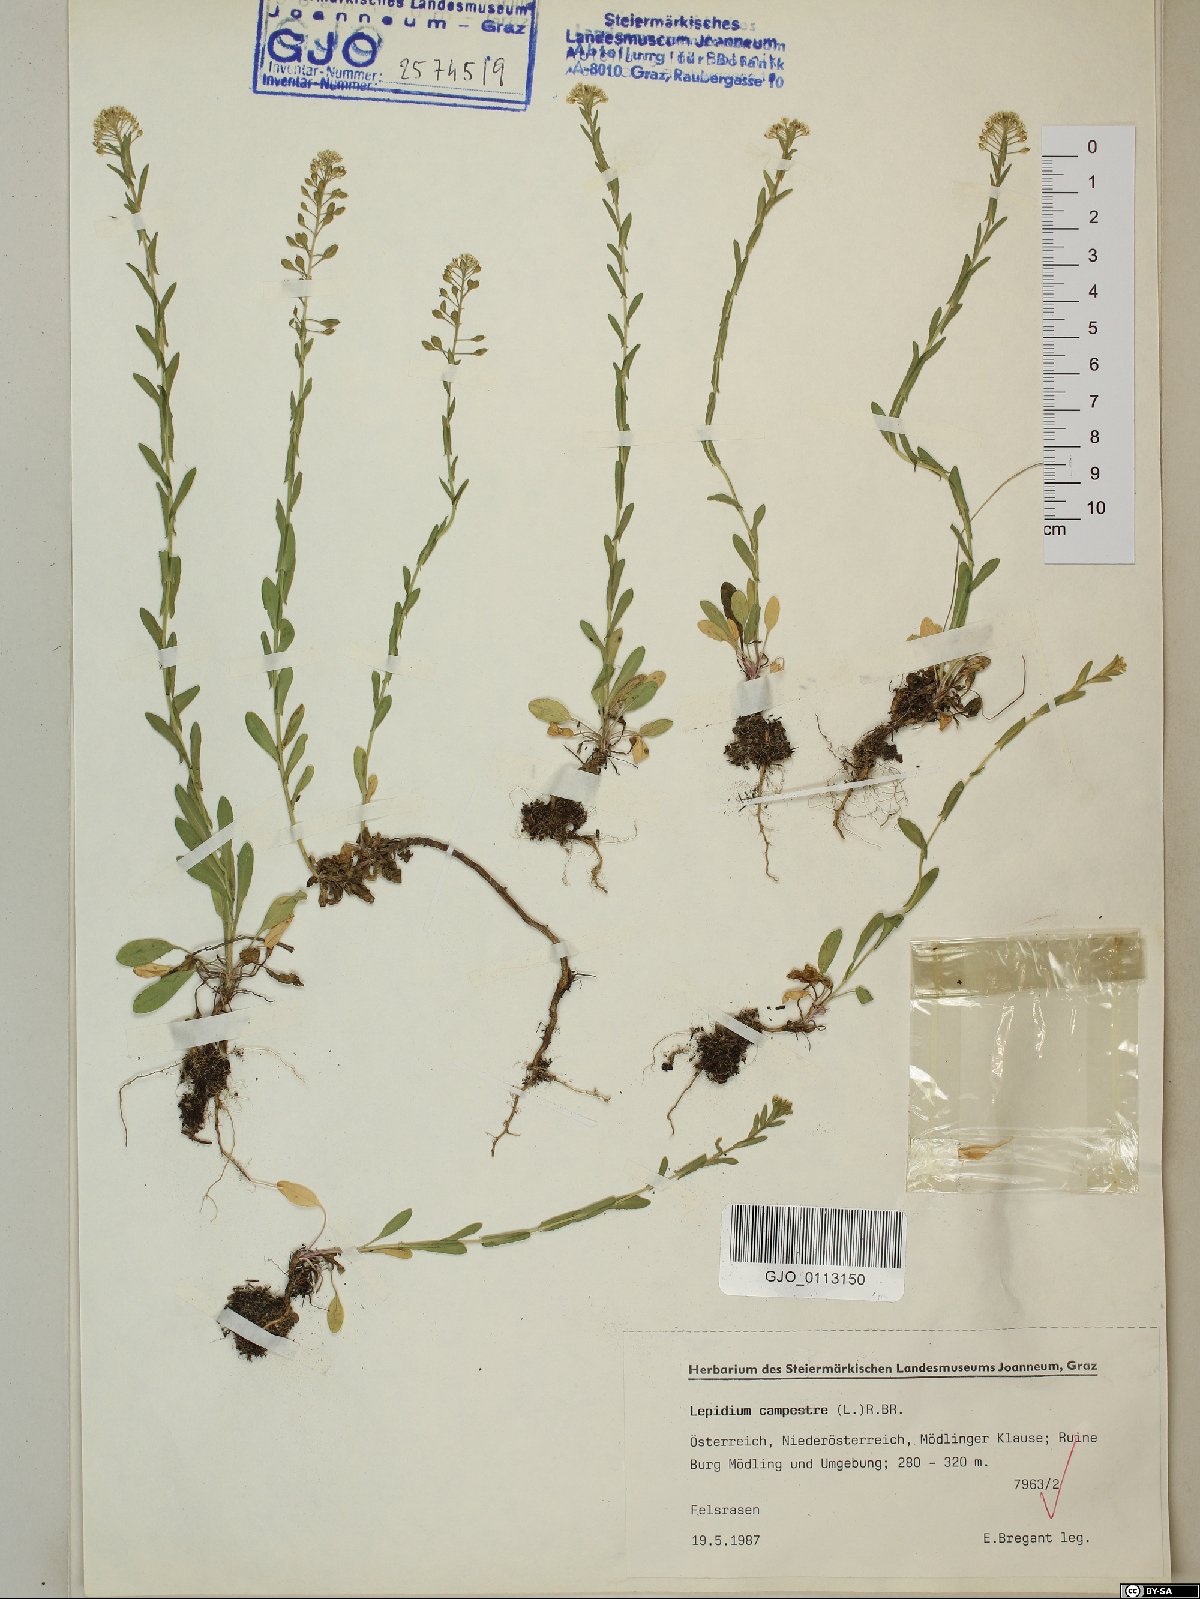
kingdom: Plantae
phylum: Tracheophyta
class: Magnoliopsida
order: Brassicales
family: Brassicaceae
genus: Lepidium
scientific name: Lepidium campestre
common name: Field pepperwort
